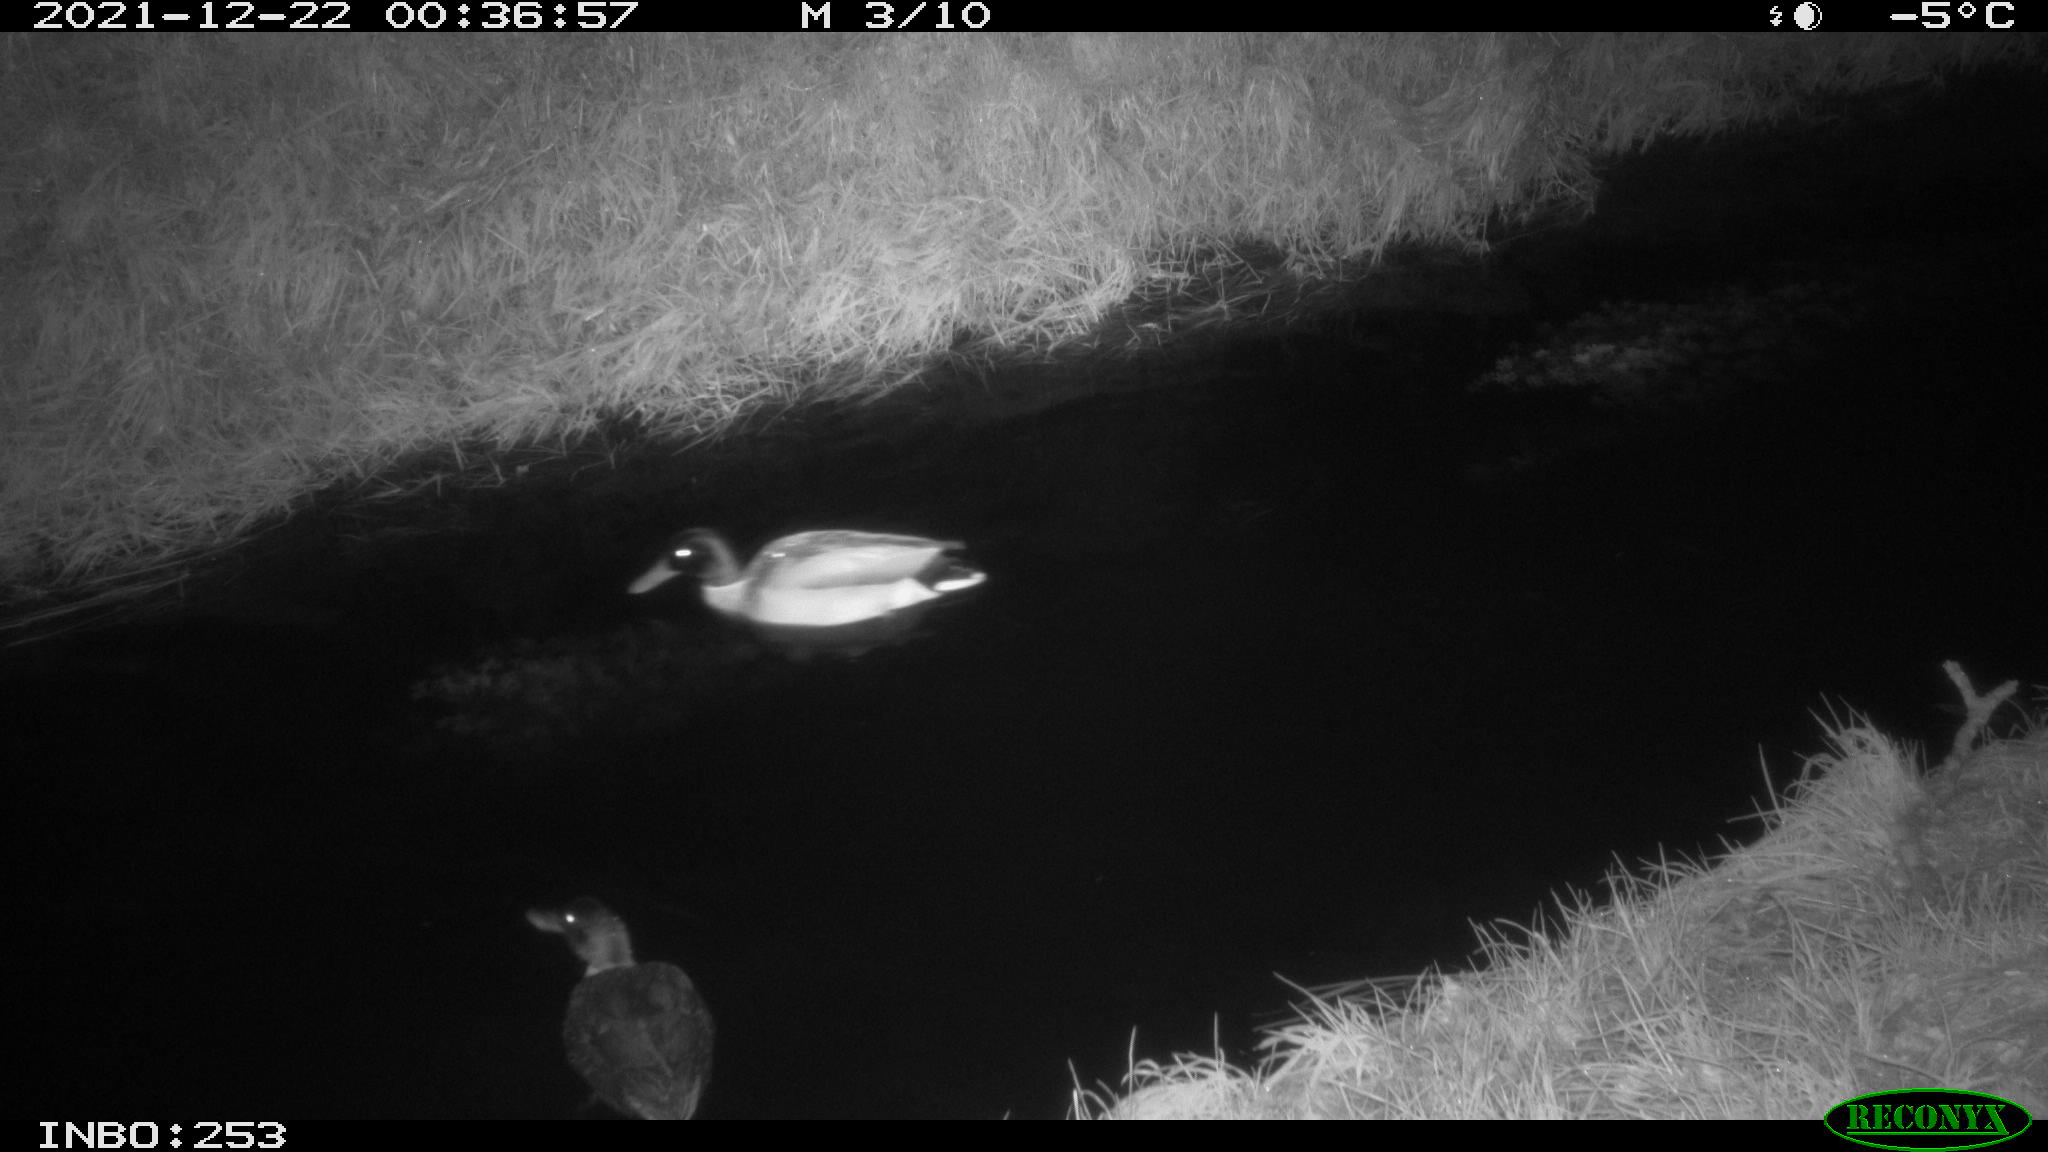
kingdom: Animalia
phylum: Chordata
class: Aves
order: Anseriformes
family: Anatidae
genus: Anas
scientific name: Anas
